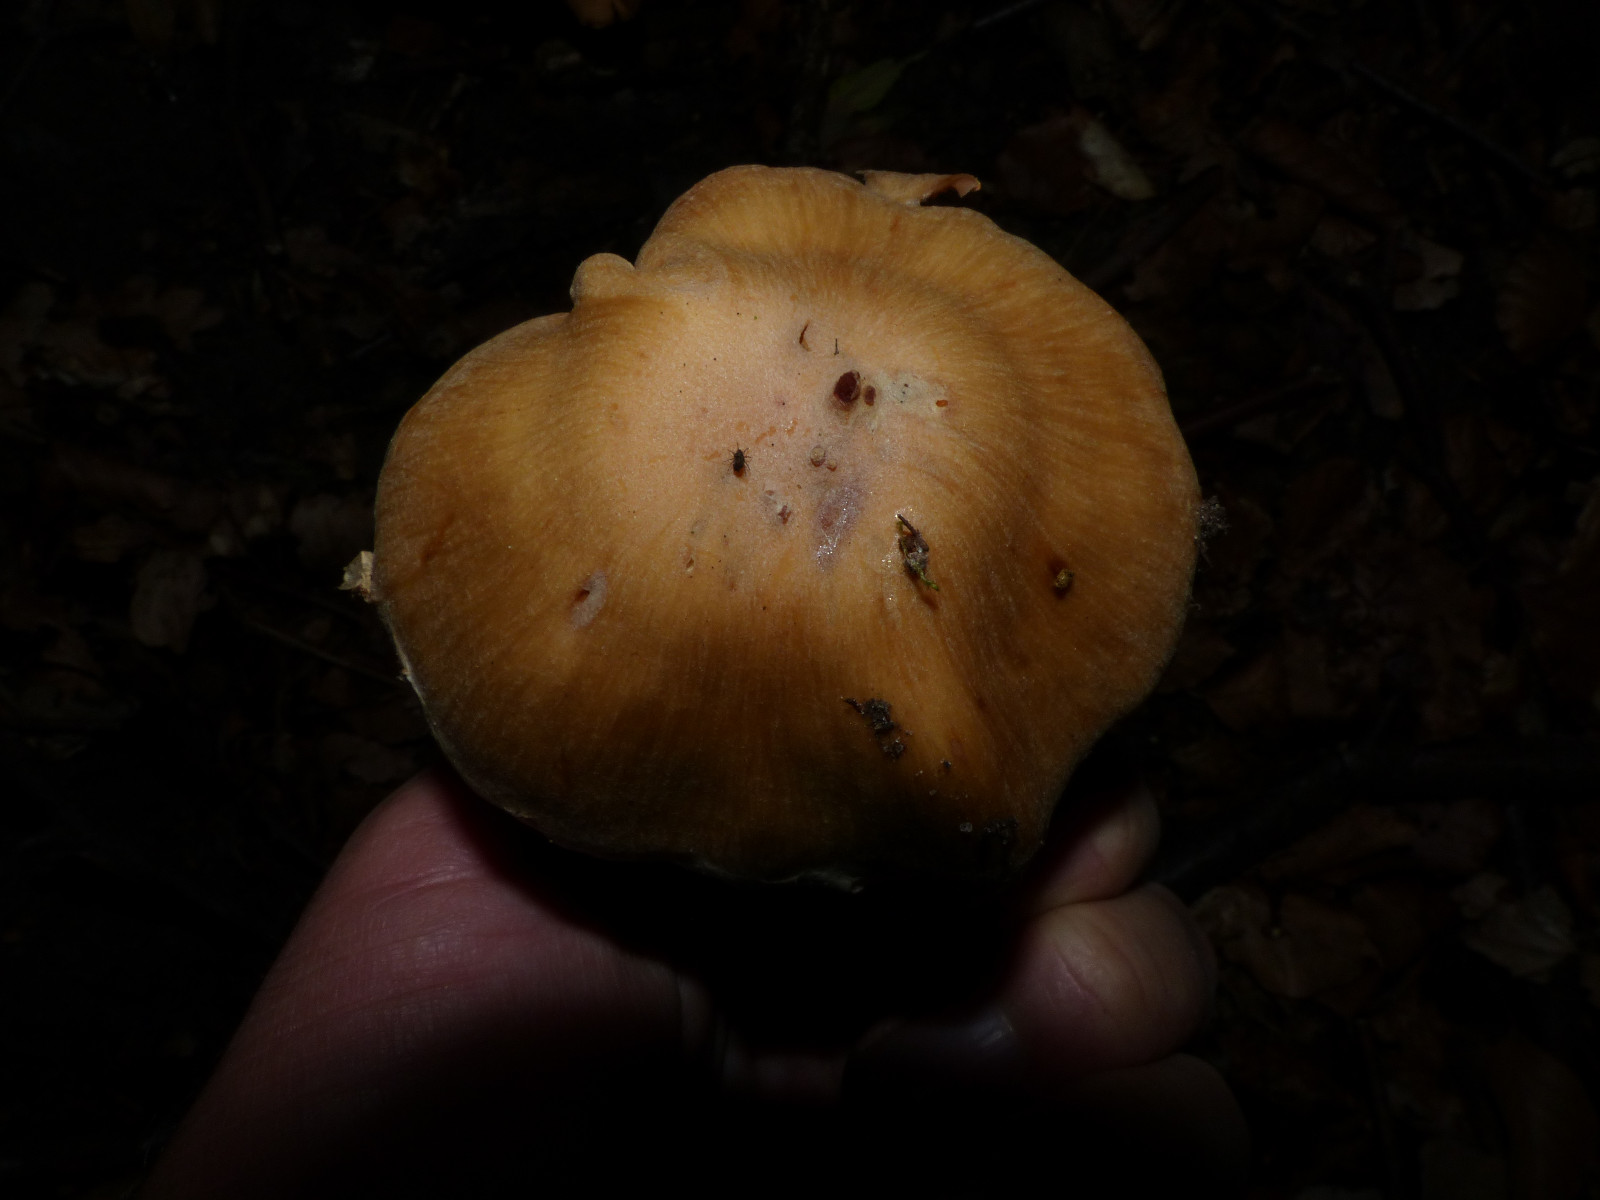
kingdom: Fungi
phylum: Basidiomycota
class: Agaricomycetes
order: Agaricales
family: Cortinariaceae
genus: Cortinarius
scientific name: Cortinarius
